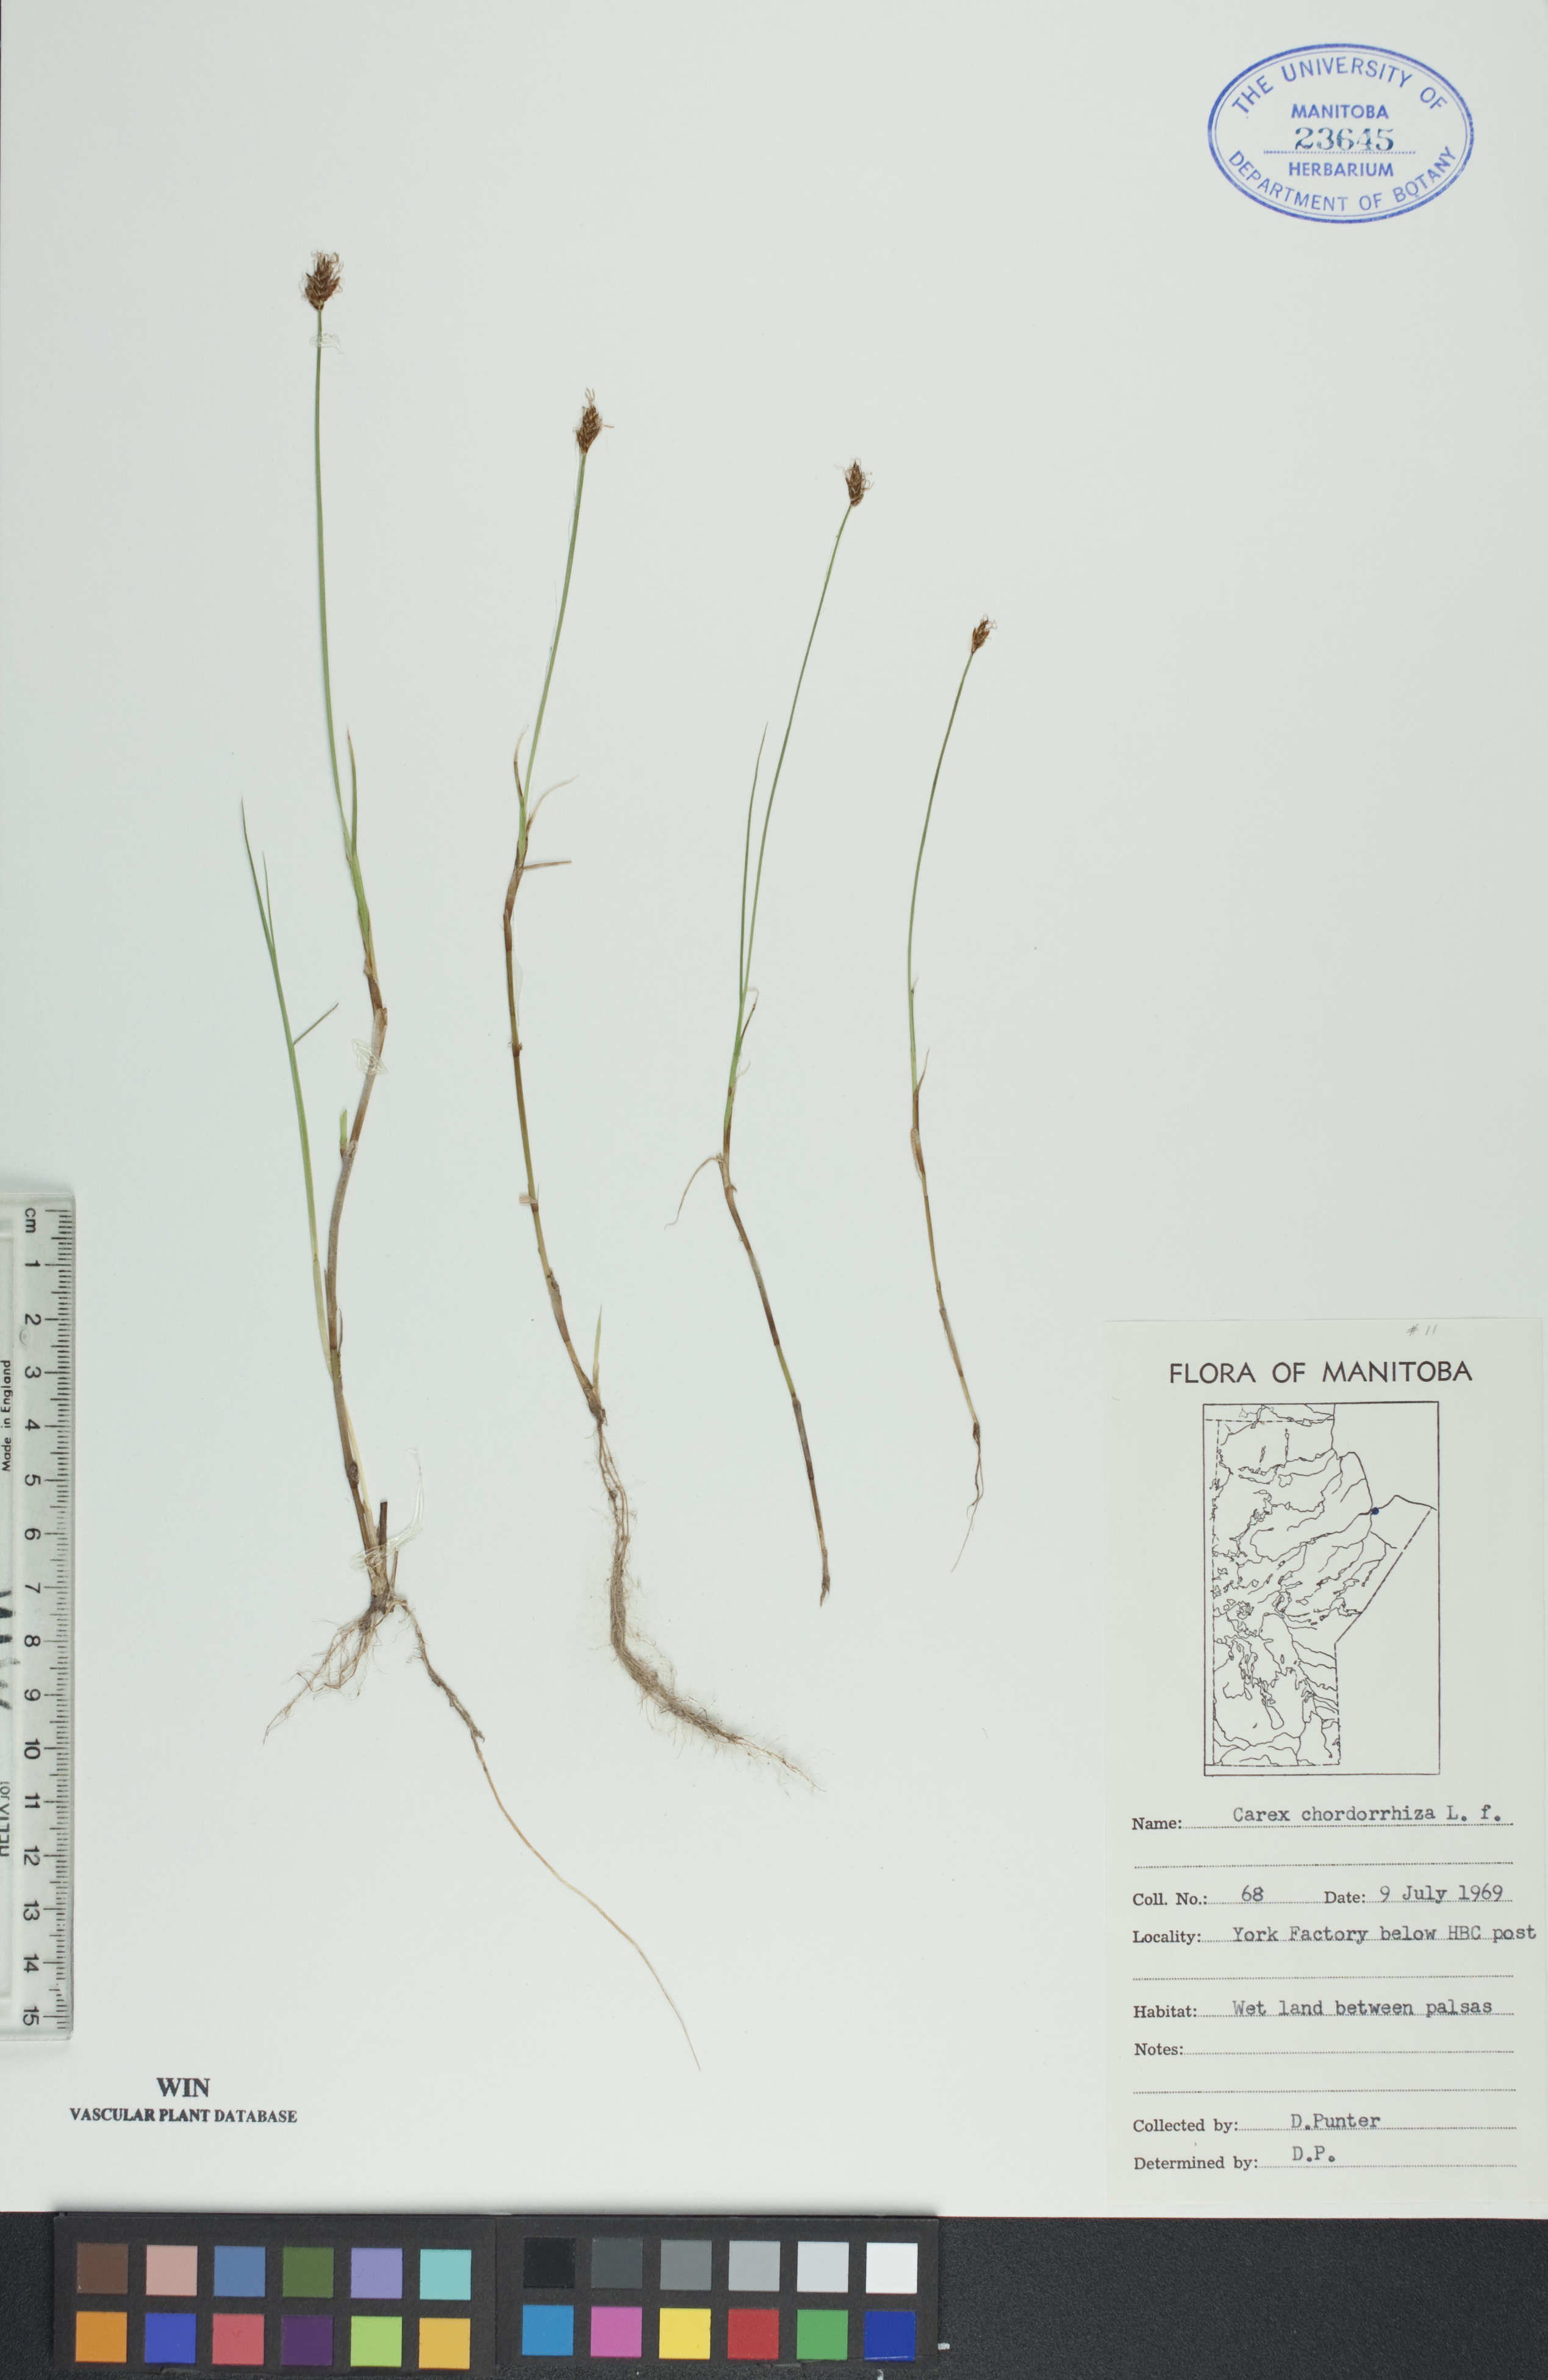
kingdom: Plantae
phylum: Tracheophyta
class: Liliopsida
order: Poales
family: Cyperaceae
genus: Carex
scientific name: Carex chordorrhiza
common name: String sedge
